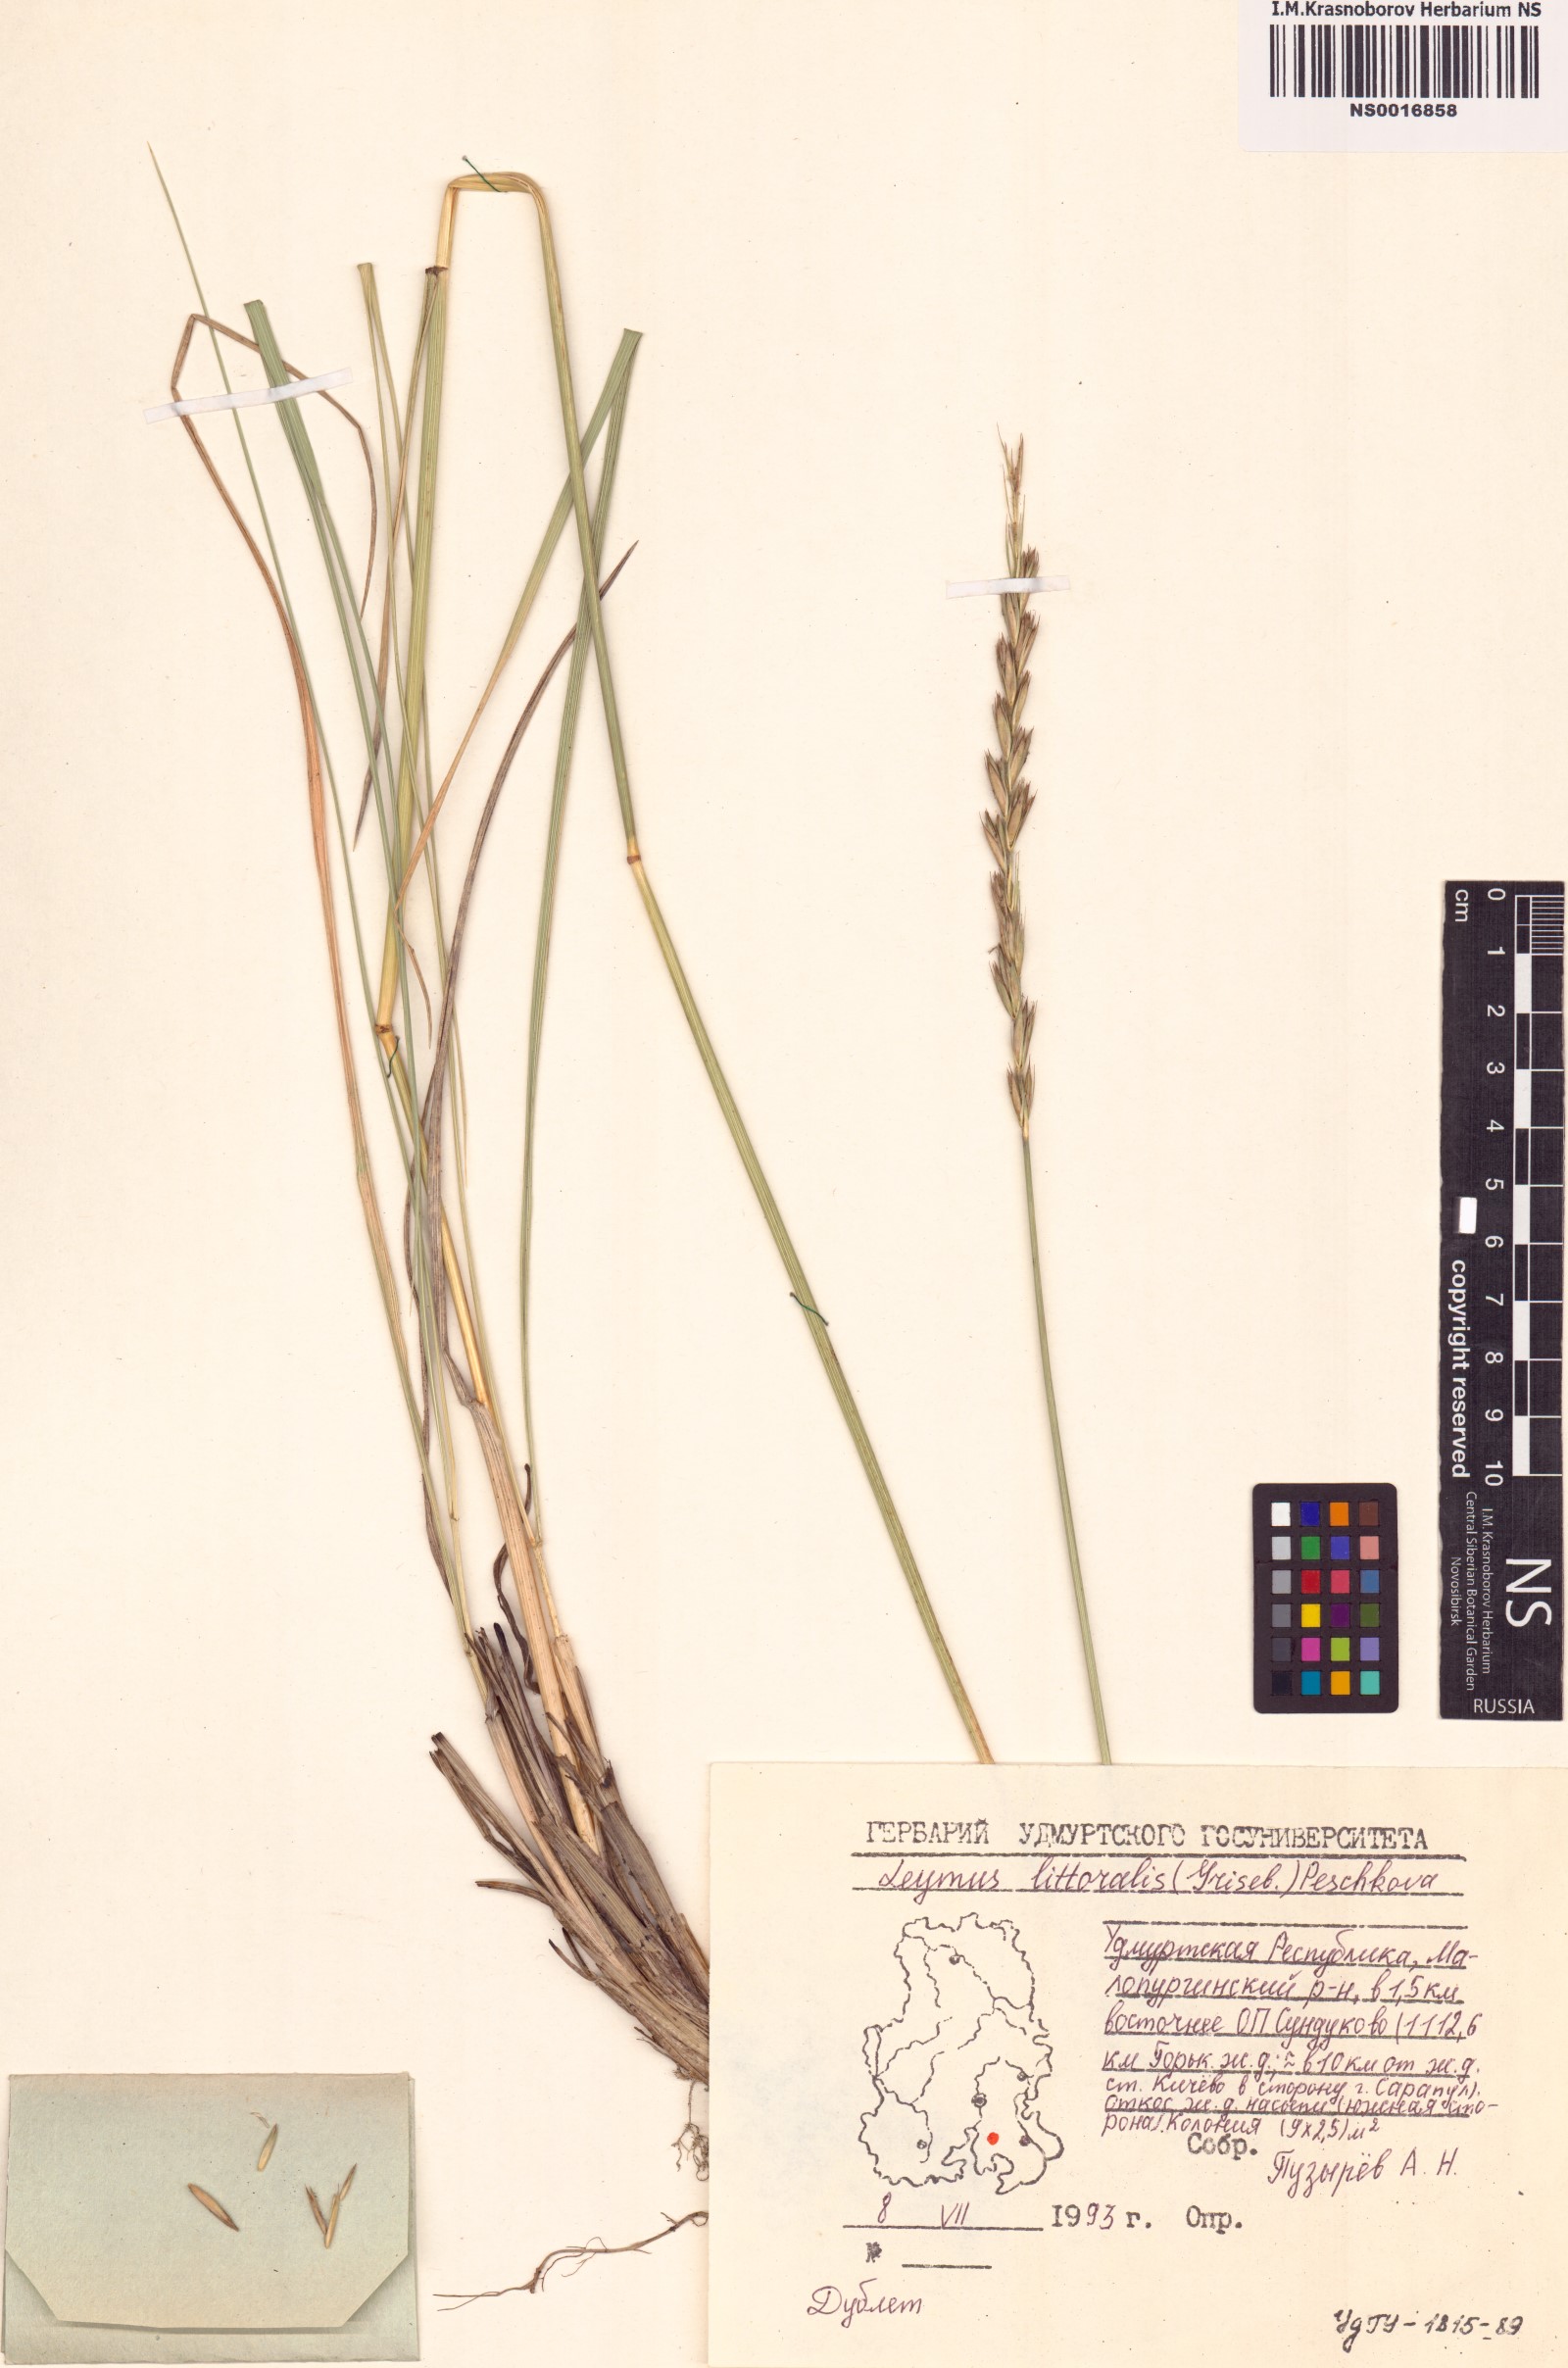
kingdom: Plantae
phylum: Tracheophyta
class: Liliopsida
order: Poales
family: Poaceae
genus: Leymus
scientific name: Leymus secalinus
